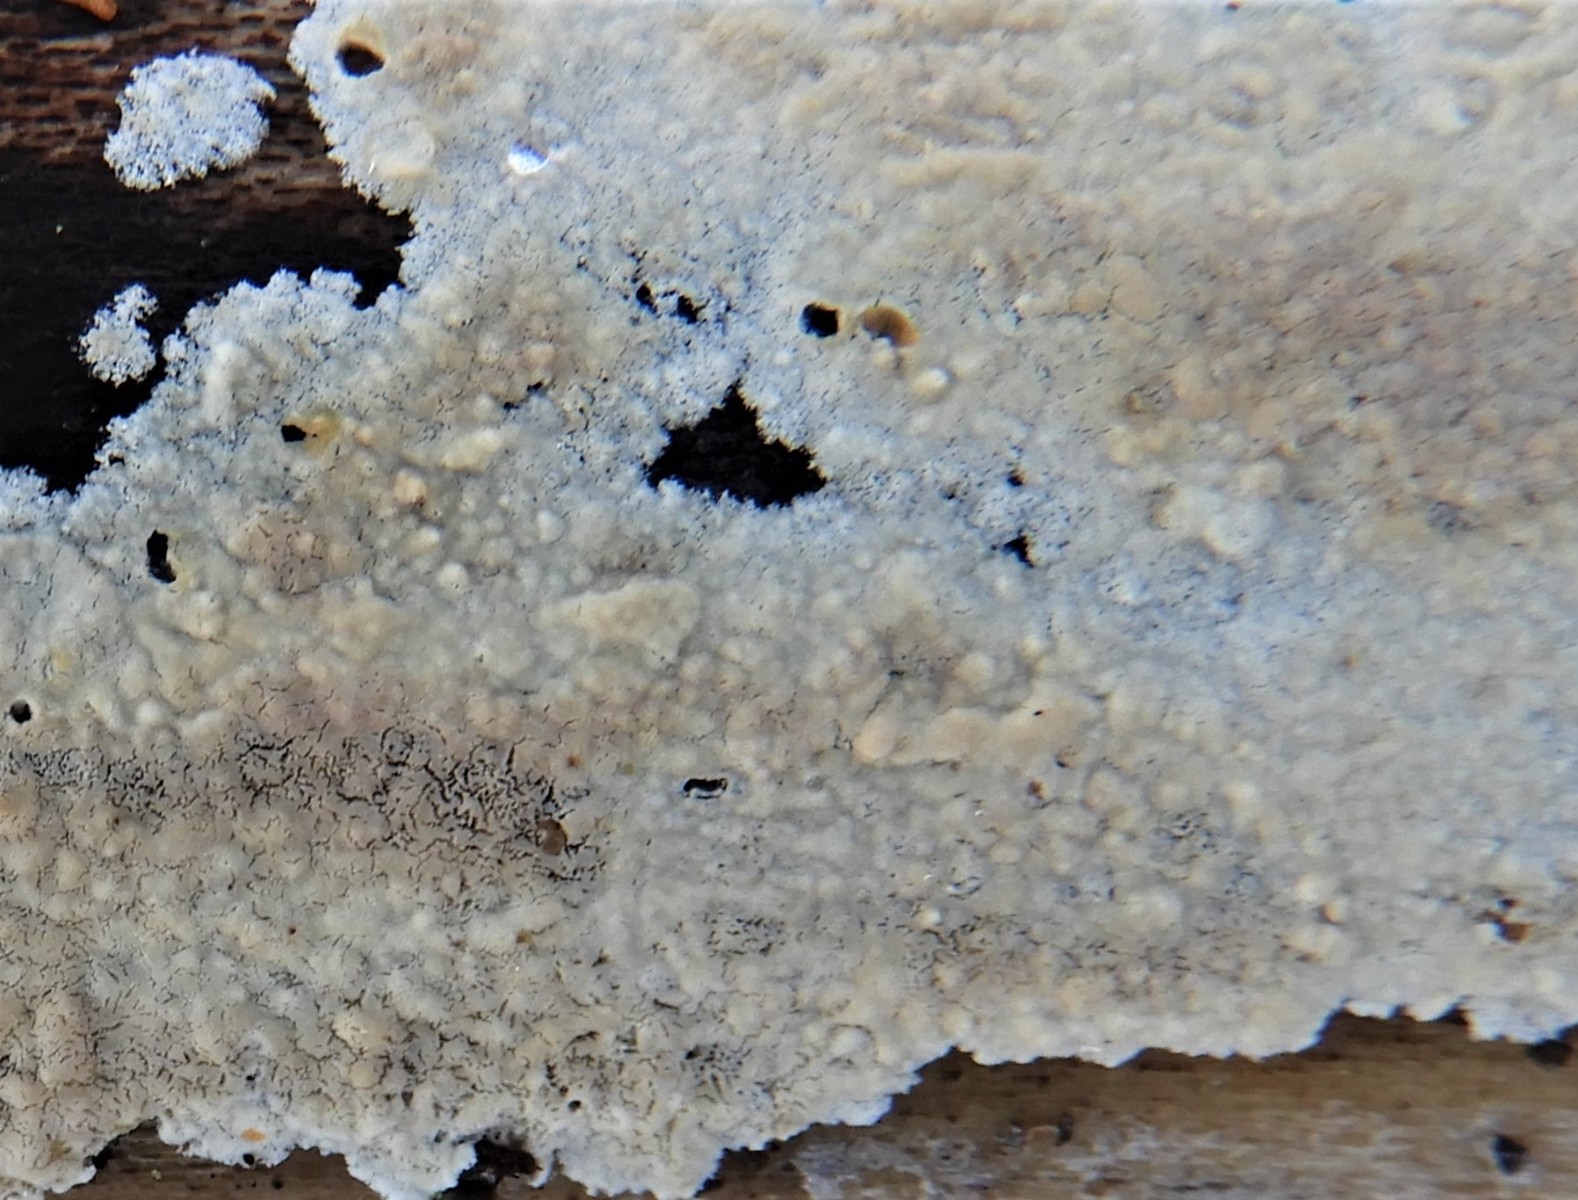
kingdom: Fungi
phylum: Basidiomycota
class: Agaricomycetes
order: Agaricales
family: Physalacriaceae
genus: Cylindrobasidium
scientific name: Cylindrobasidium evolvens
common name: sprækkehinde
